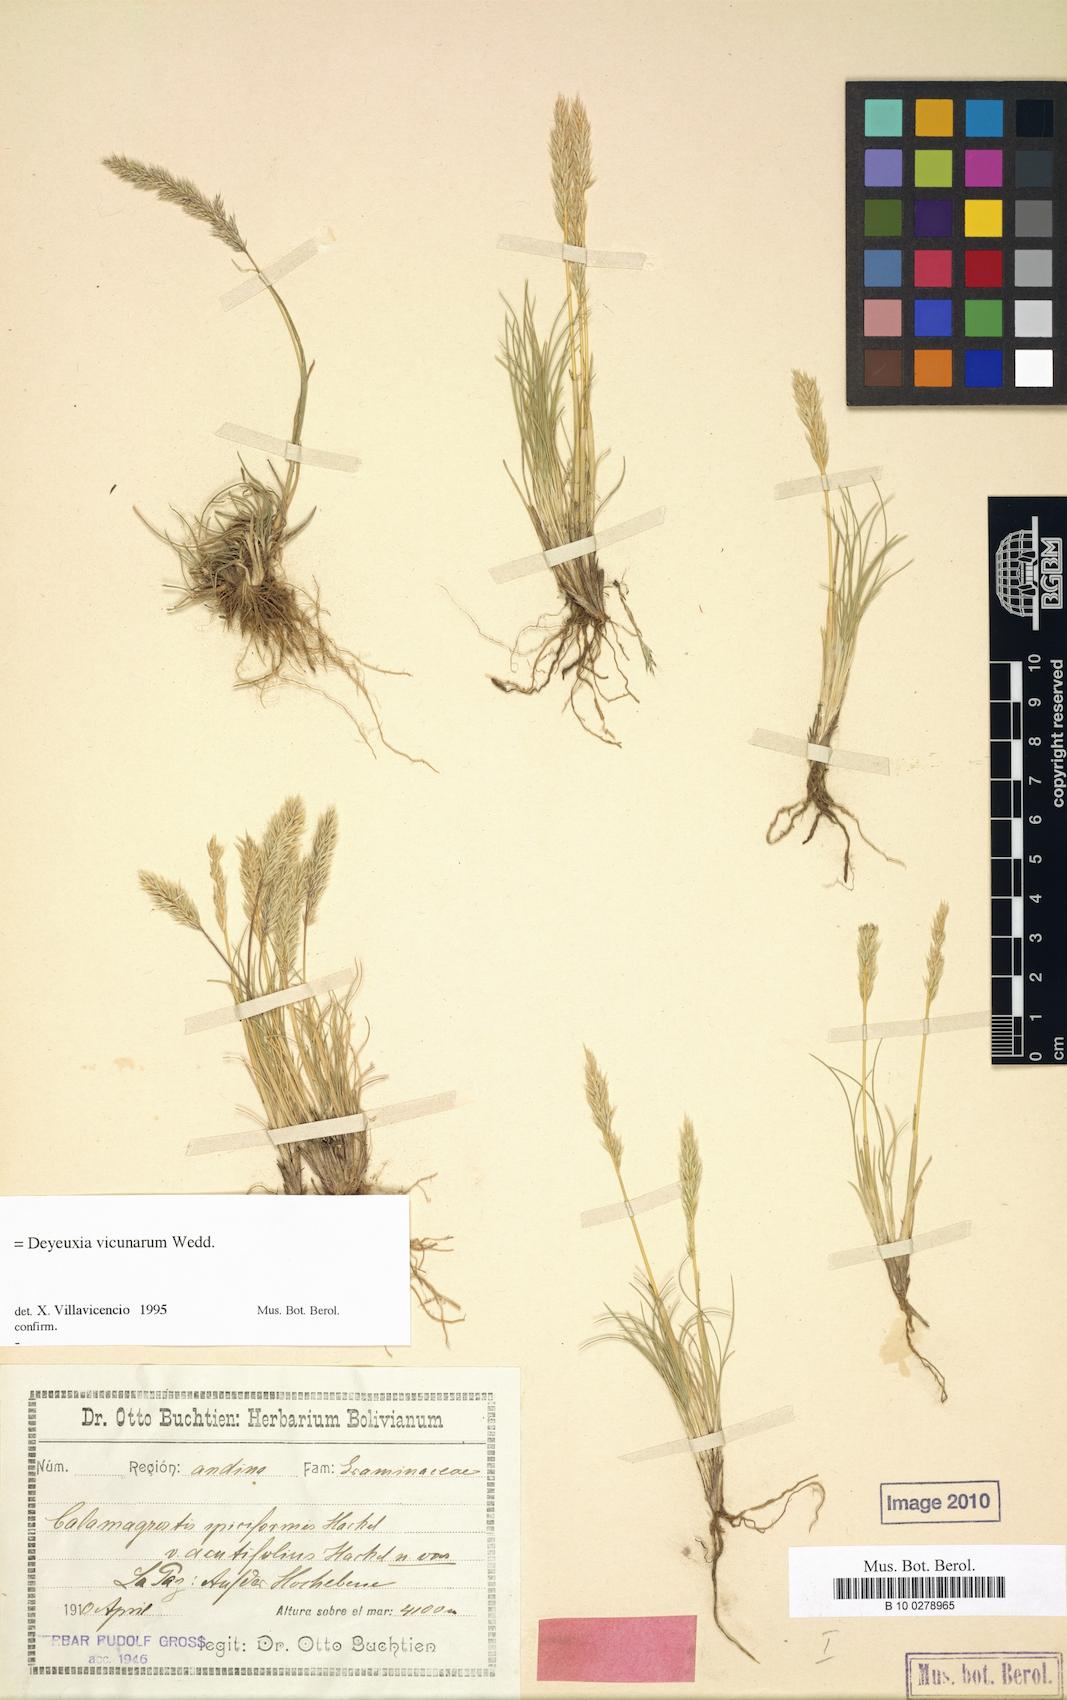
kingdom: Plantae
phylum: Tracheophyta
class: Liliopsida
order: Poales
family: Poaceae
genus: Cinnagrostis
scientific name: Cinnagrostis vicunarum
